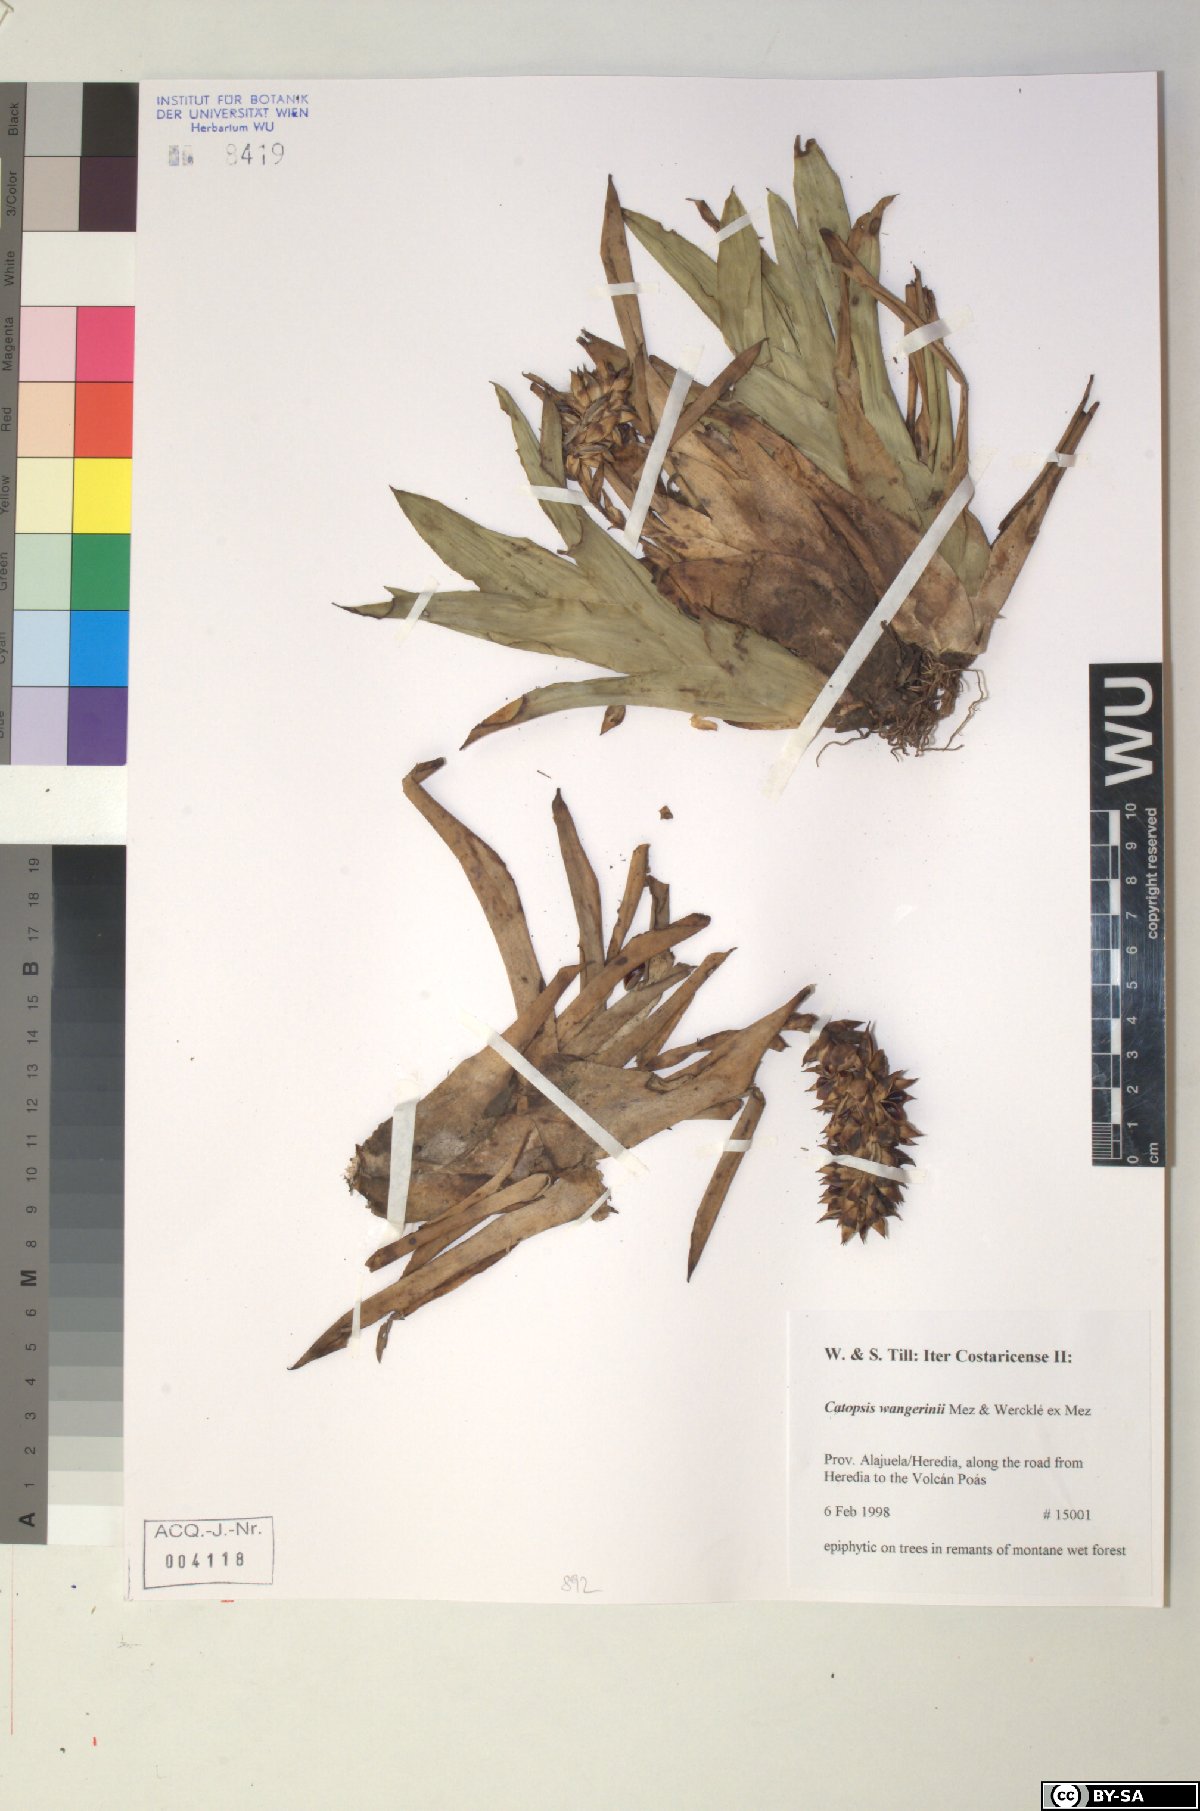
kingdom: Plantae
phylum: Tracheophyta
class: Liliopsida
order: Poales
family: Bromeliaceae
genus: Catopsis
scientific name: Catopsis wangerinii
